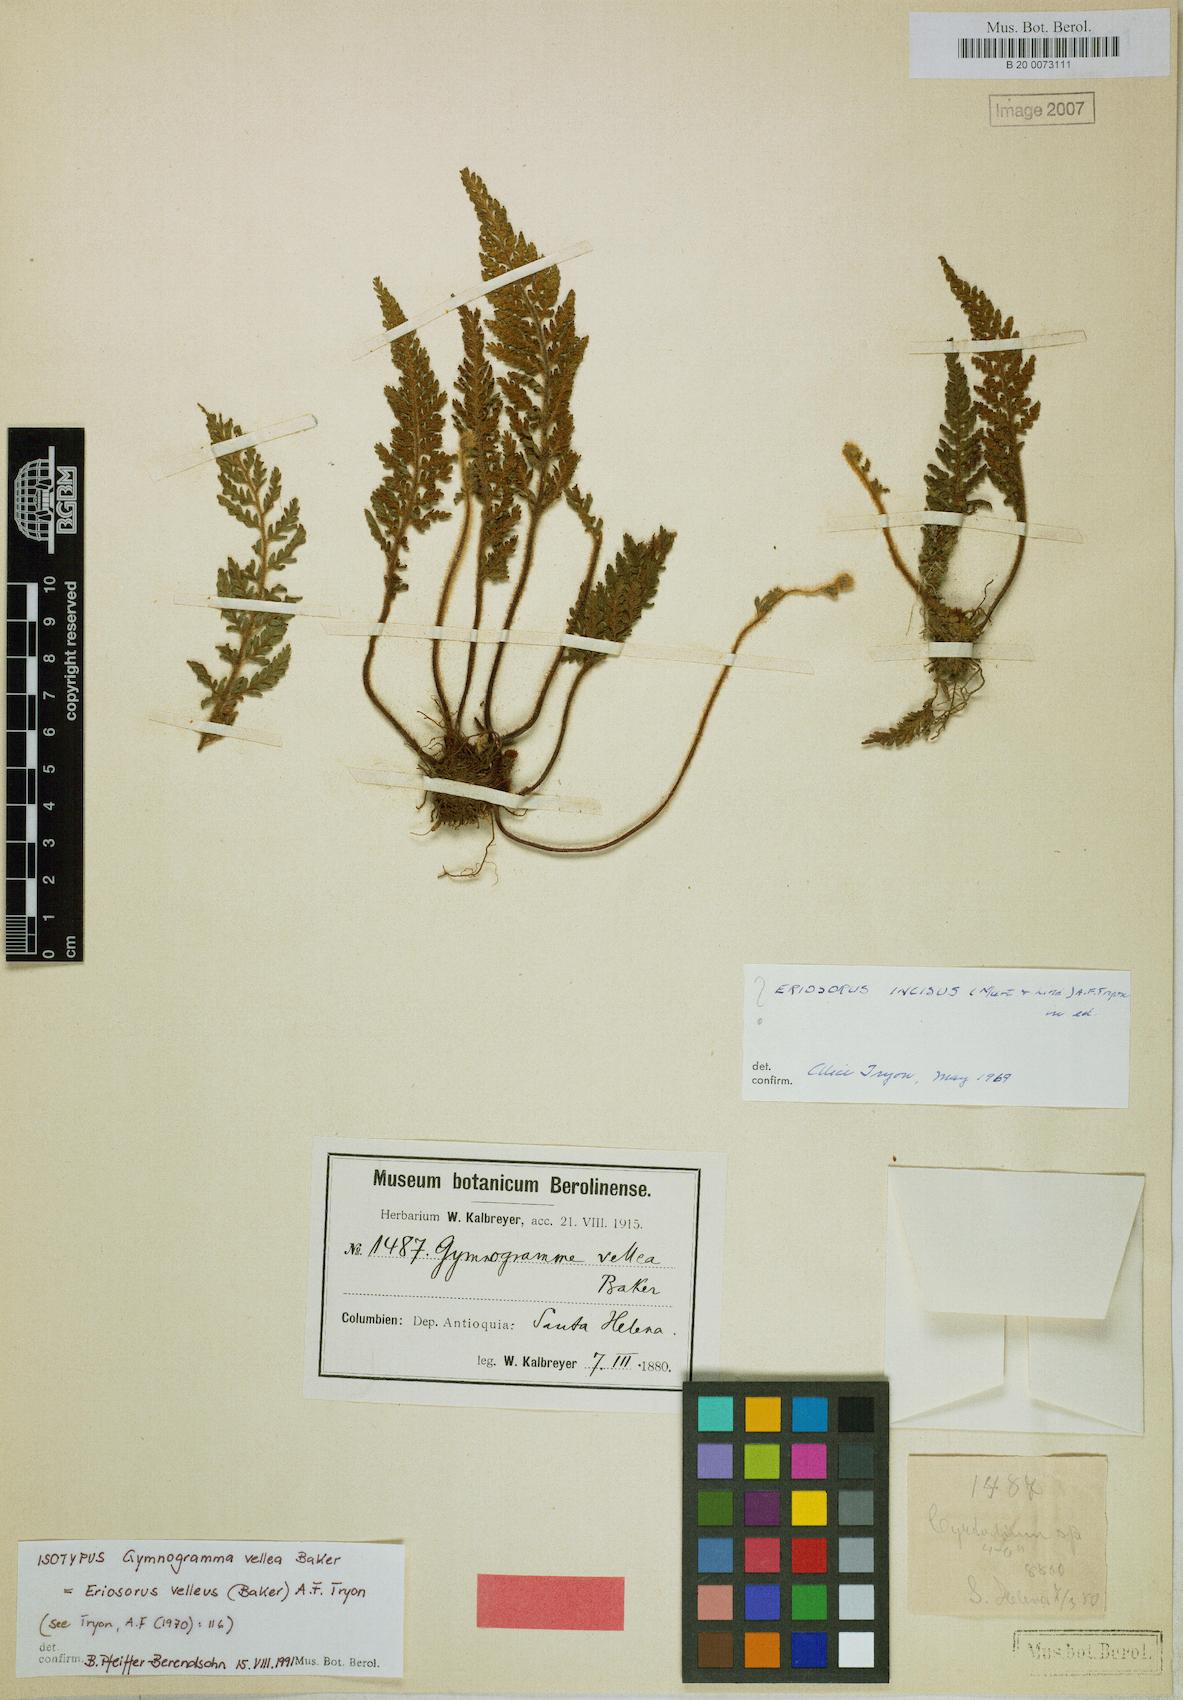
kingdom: Plantae
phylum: Tracheophyta
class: Polypodiopsida
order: Polypodiales
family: Pteridaceae
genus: Jamesonia
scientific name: Jamesonia vellea
